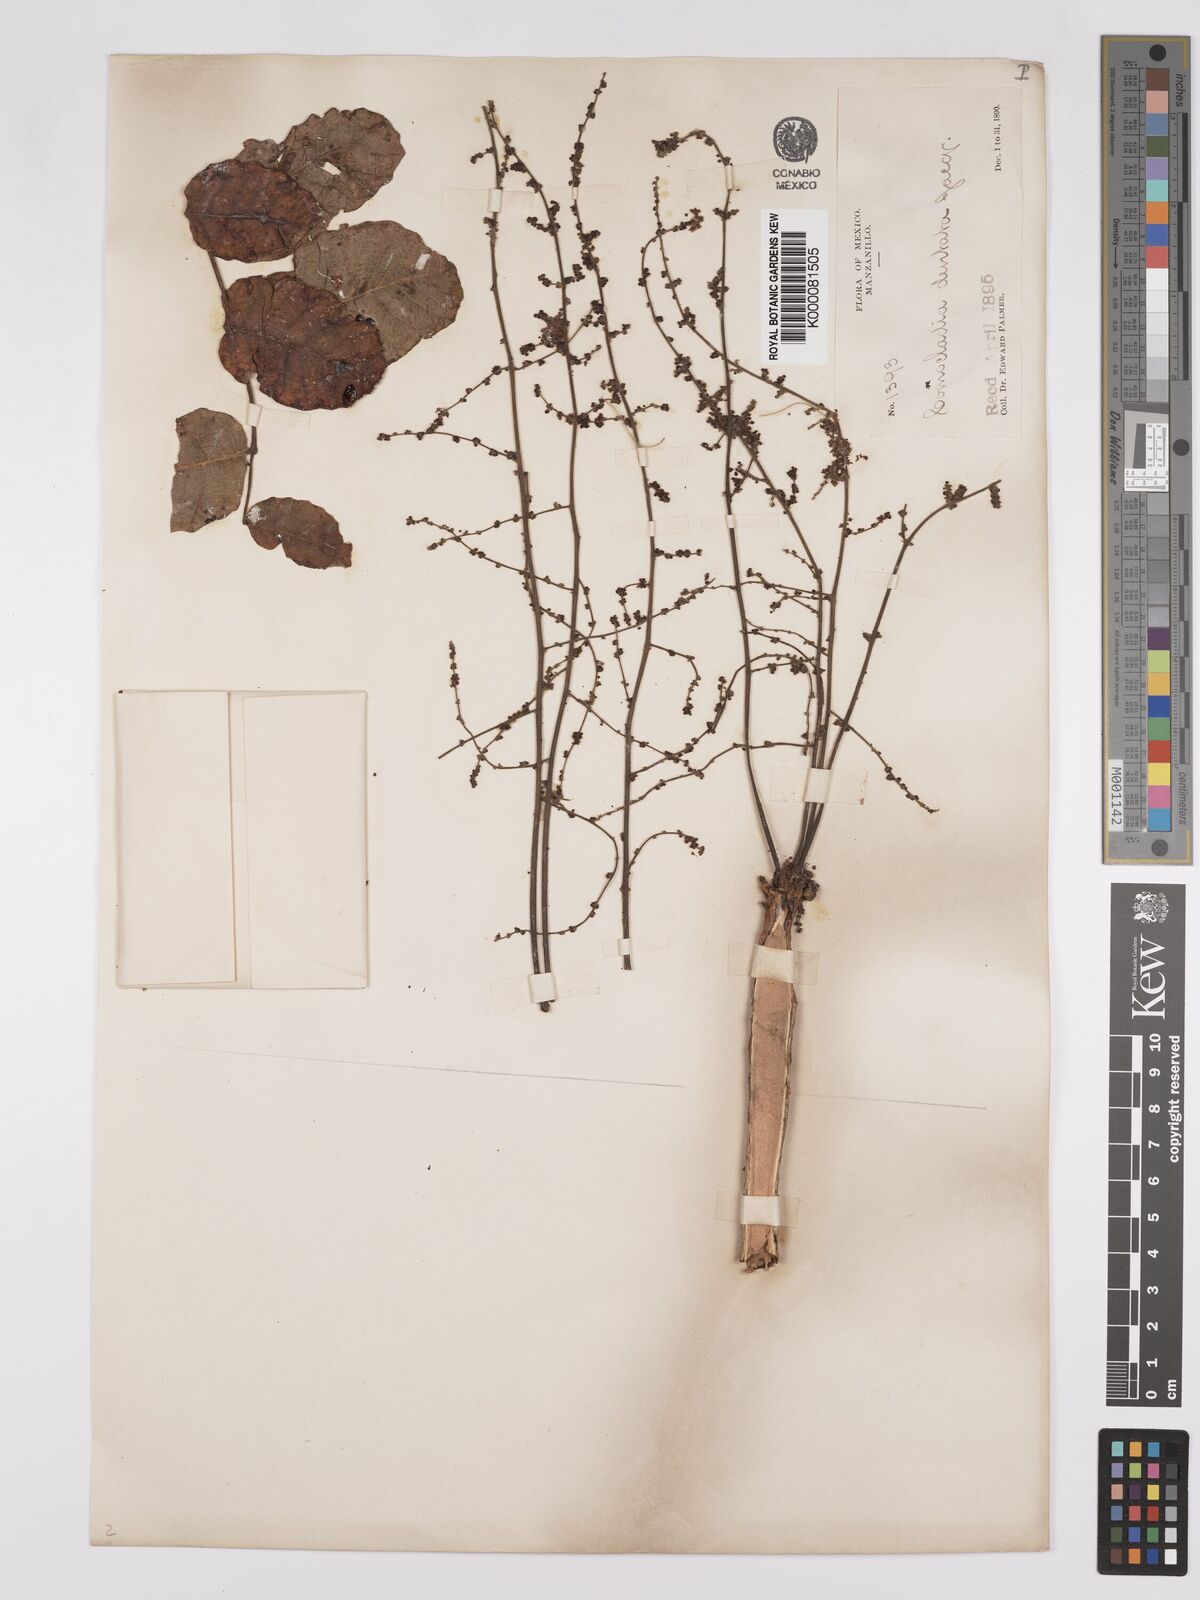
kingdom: Plantae
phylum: Tracheophyta
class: Magnoliopsida
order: Sapindales
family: Anacardiaceae
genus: Comocladia
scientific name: Comocladia dentata
